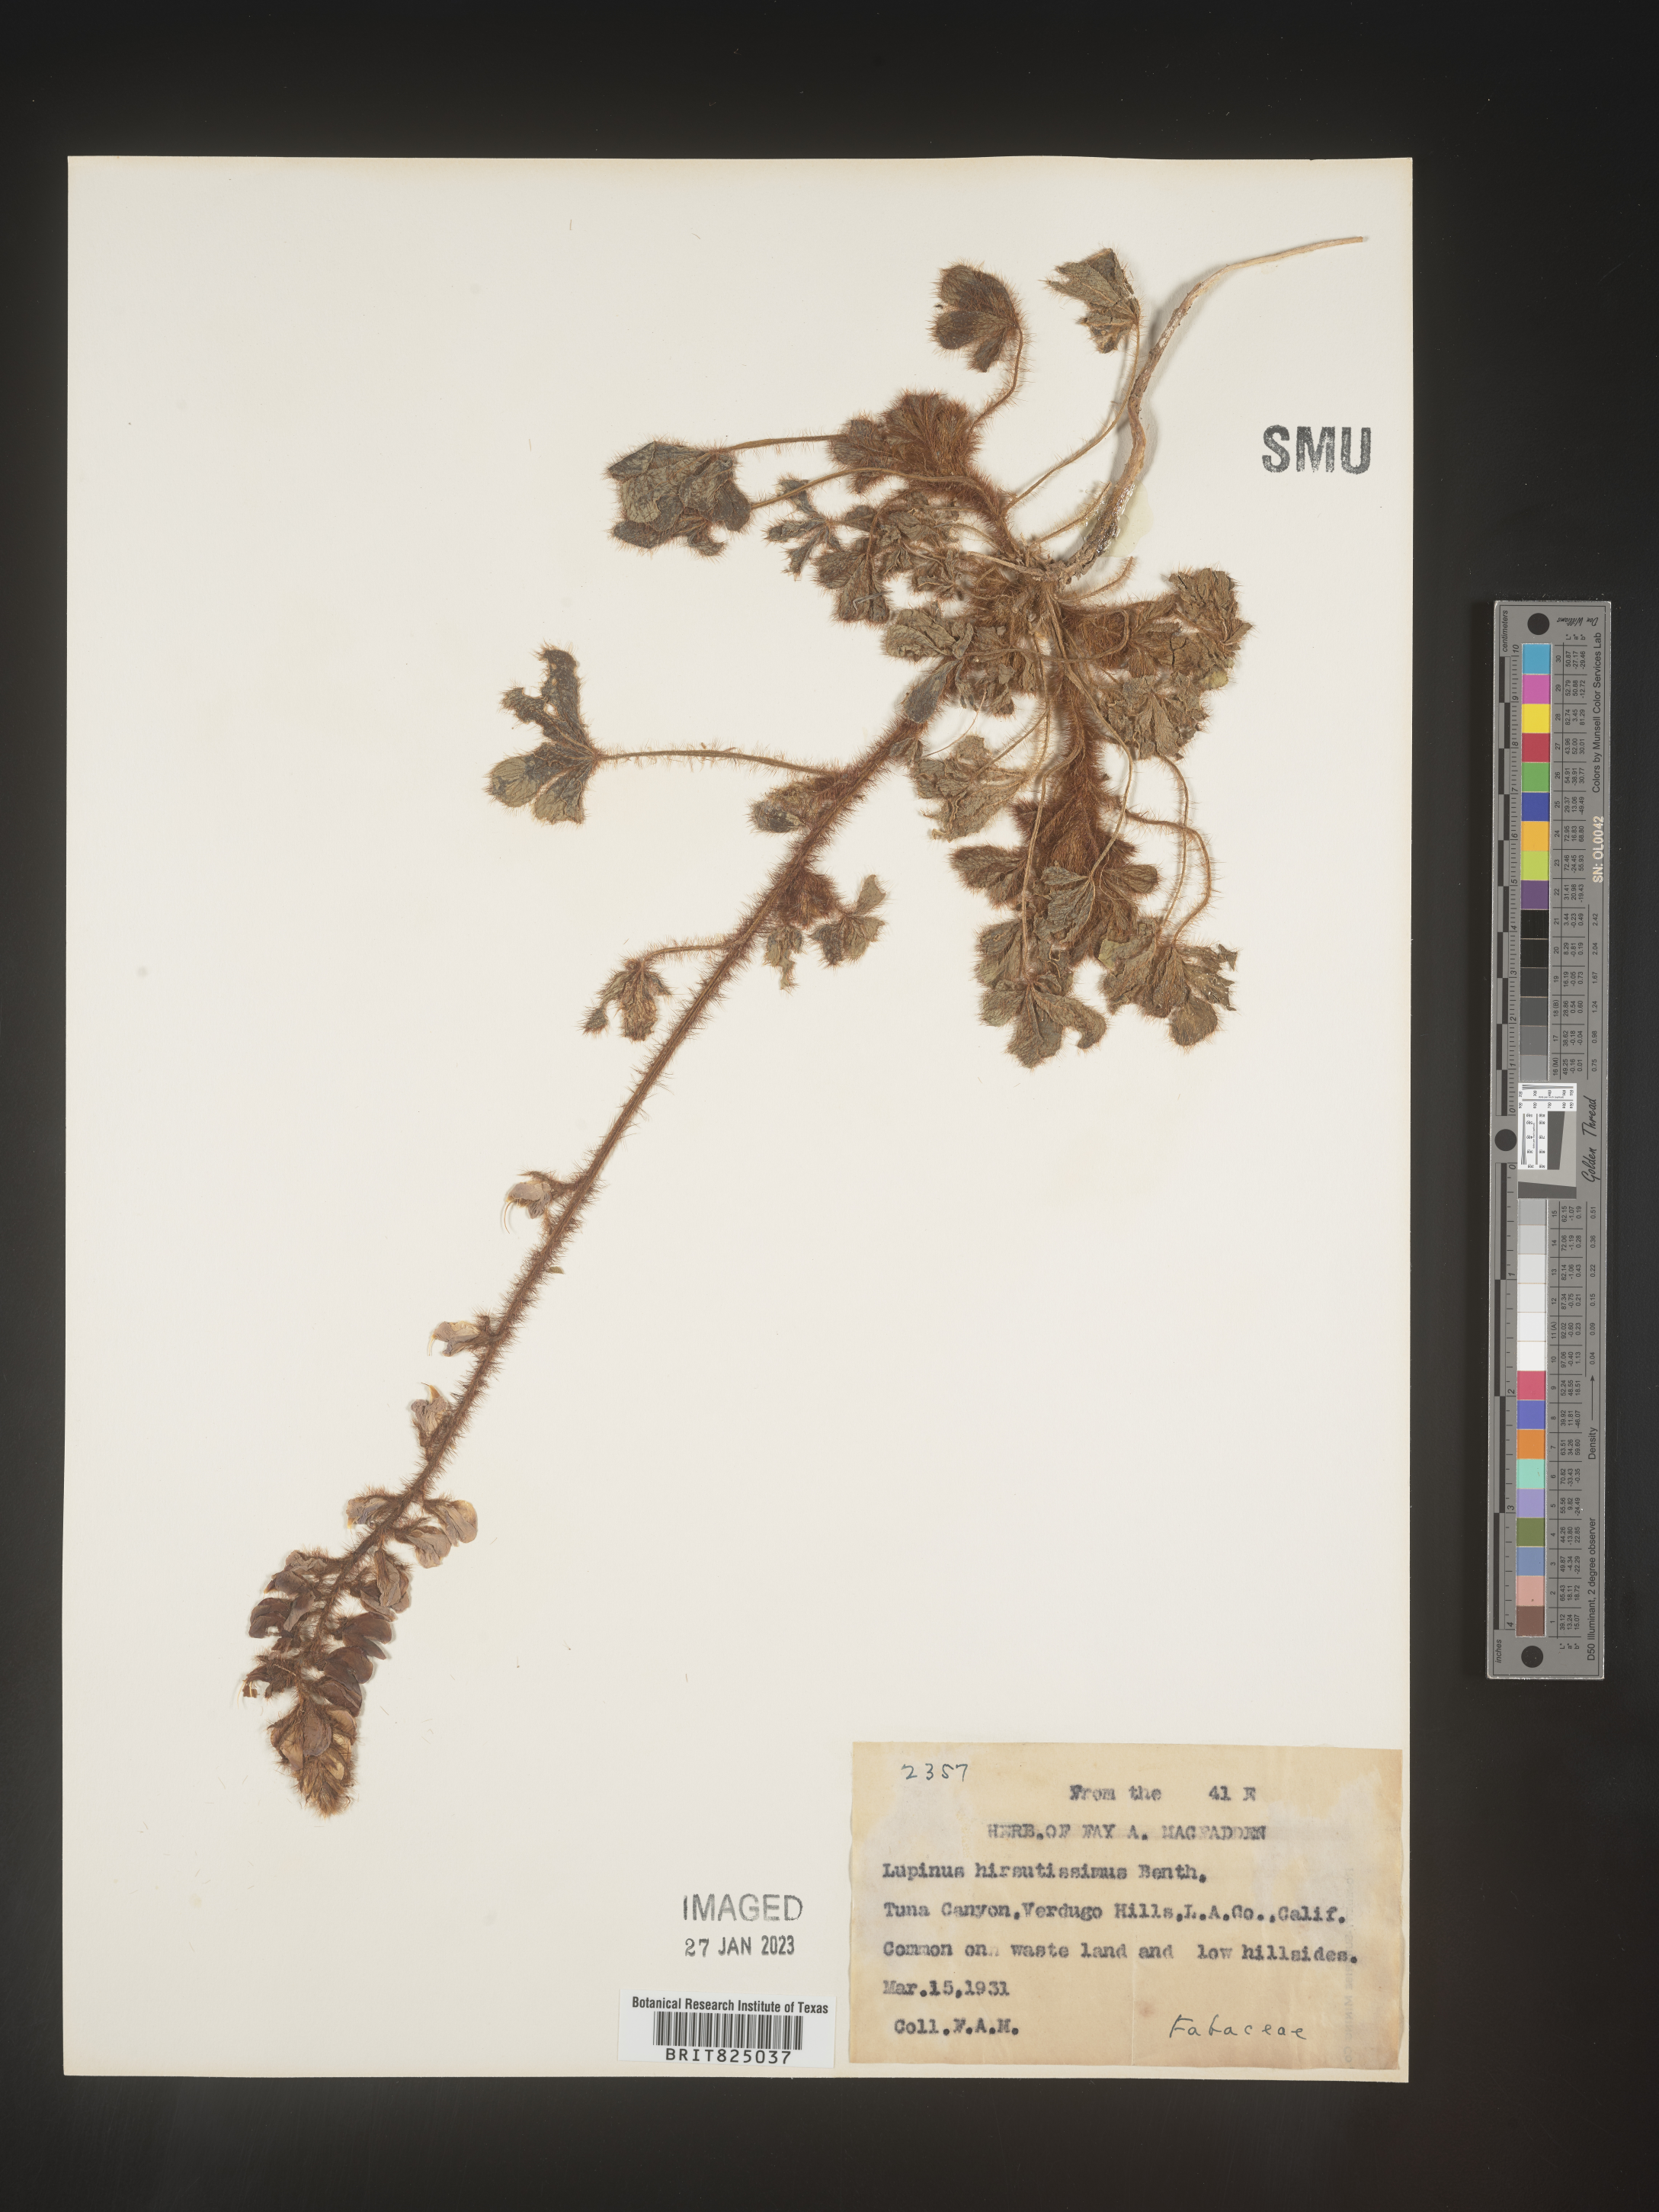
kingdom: Plantae
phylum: Tracheophyta
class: Magnoliopsida
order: Fabales
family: Fabaceae
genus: Lupinus
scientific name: Lupinus
